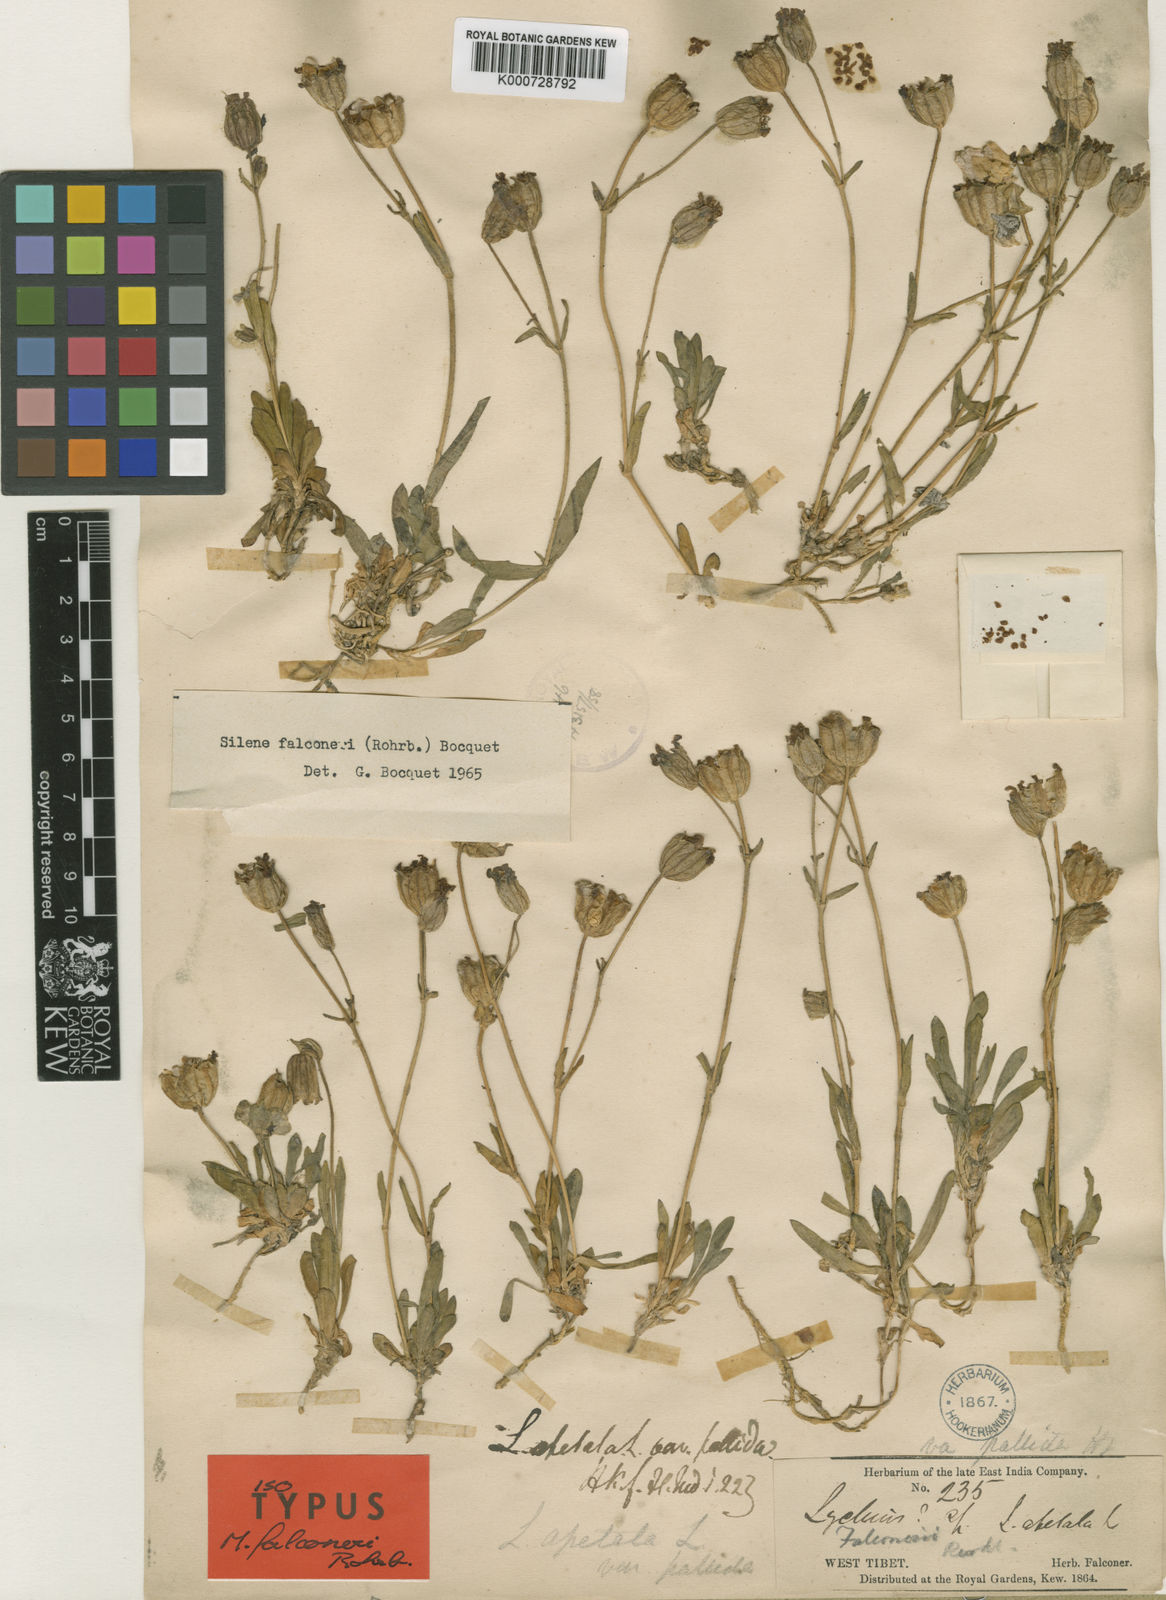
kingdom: Plantae
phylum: Tracheophyta
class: Magnoliopsida
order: Caryophyllales
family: Caryophyllaceae
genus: Silene
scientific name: Silene falconeri
